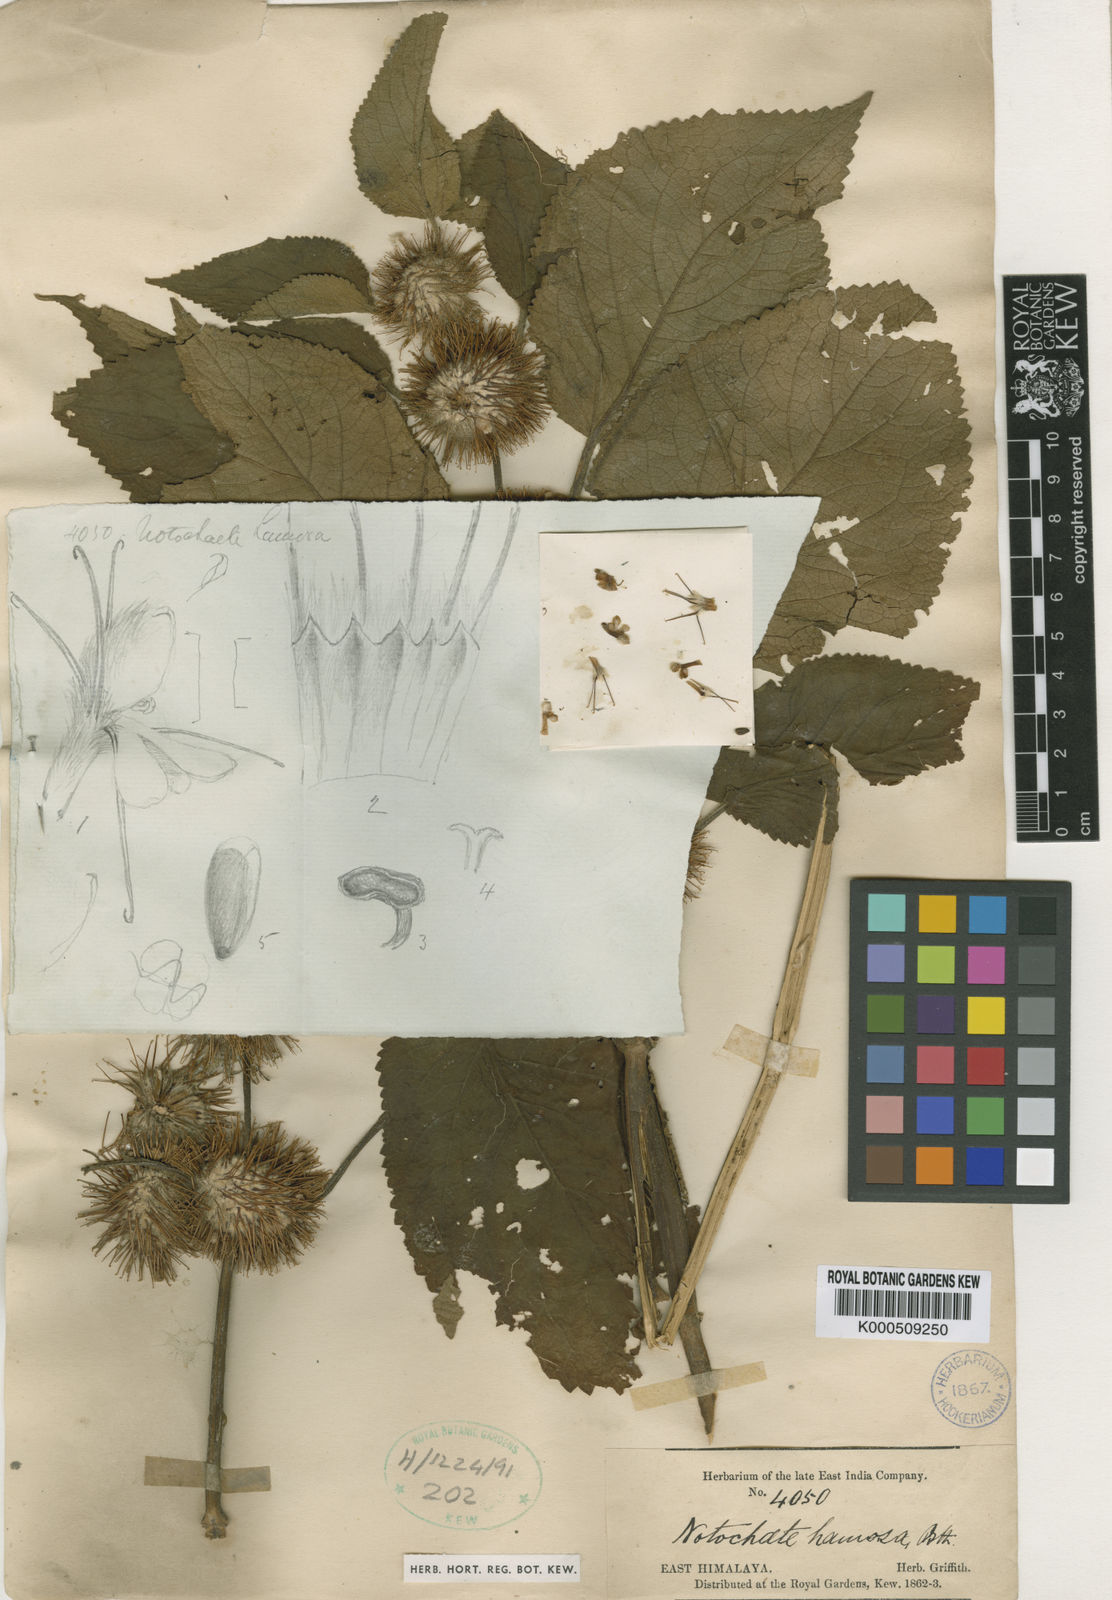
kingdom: Plantae
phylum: Tracheophyta
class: Magnoliopsida
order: Lamiales
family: Lamiaceae
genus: Phlomoides
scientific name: Phlomoides hamosa
